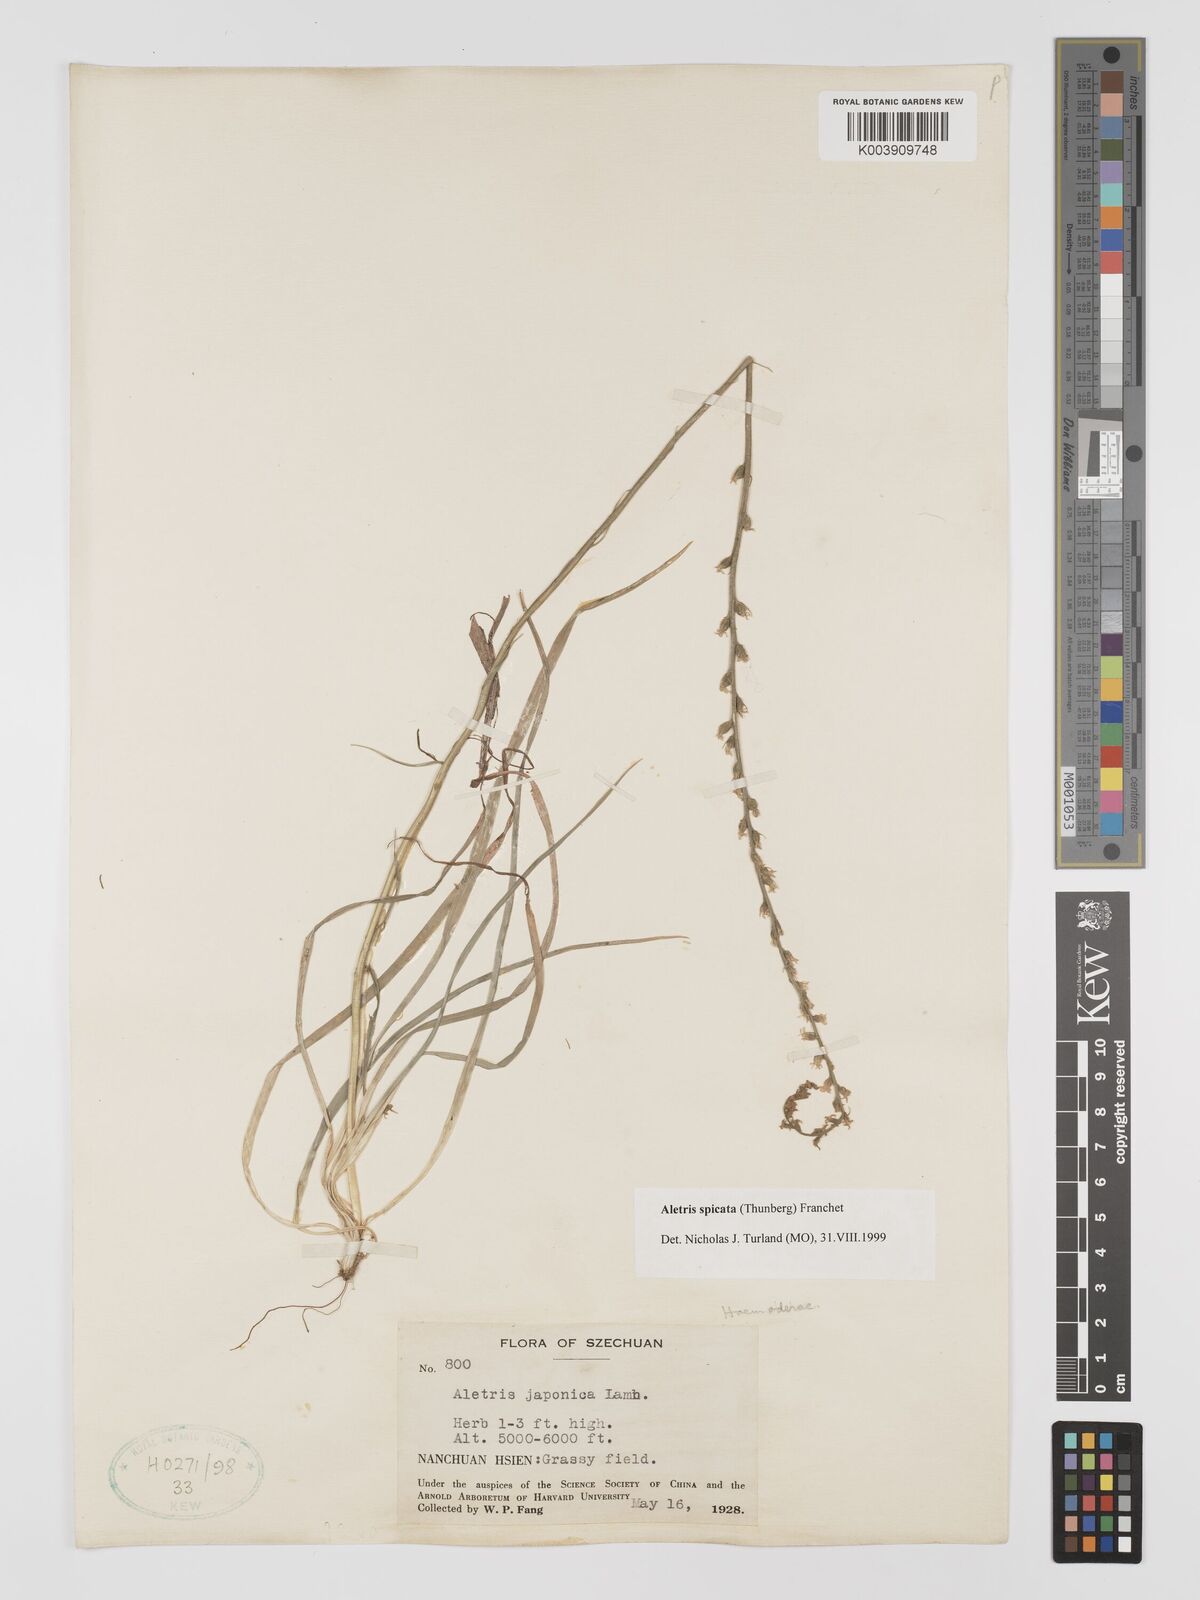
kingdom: Plantae
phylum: Tracheophyta
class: Liliopsida
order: Dioscoreales
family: Nartheciaceae
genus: Aletris
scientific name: Aletris spicata
